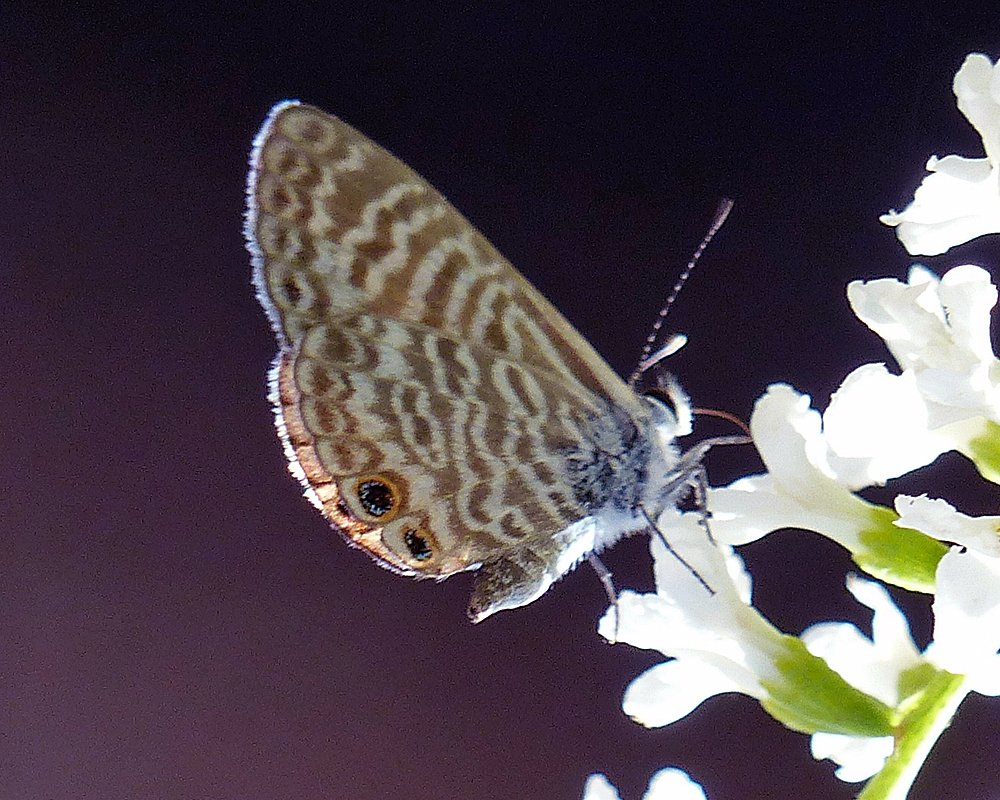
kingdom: Animalia
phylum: Arthropoda
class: Insecta
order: Lepidoptera
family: Lycaenidae
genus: Leptotes
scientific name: Leptotes marina
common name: Marine Blue
